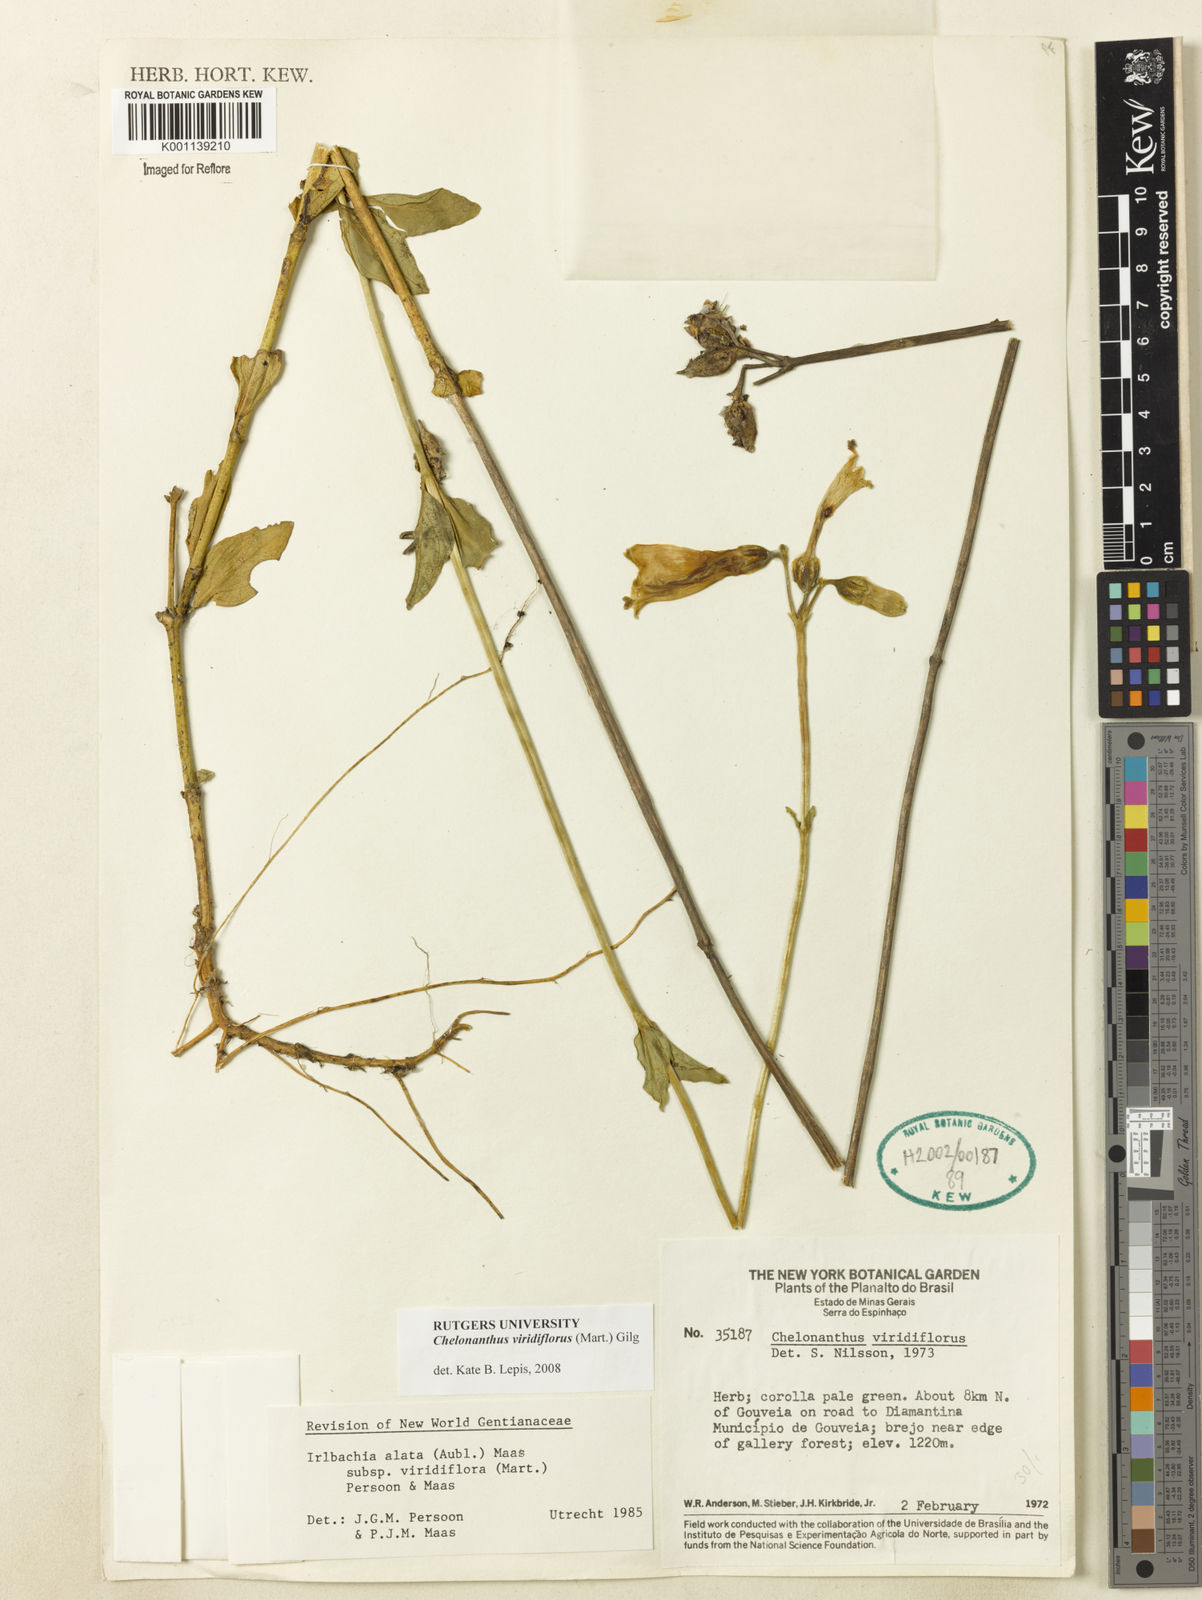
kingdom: Plantae
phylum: Tracheophyta
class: Magnoliopsida
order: Gentianales
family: Gentianaceae
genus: Chelonanthus
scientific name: Chelonanthus viridiflorus
